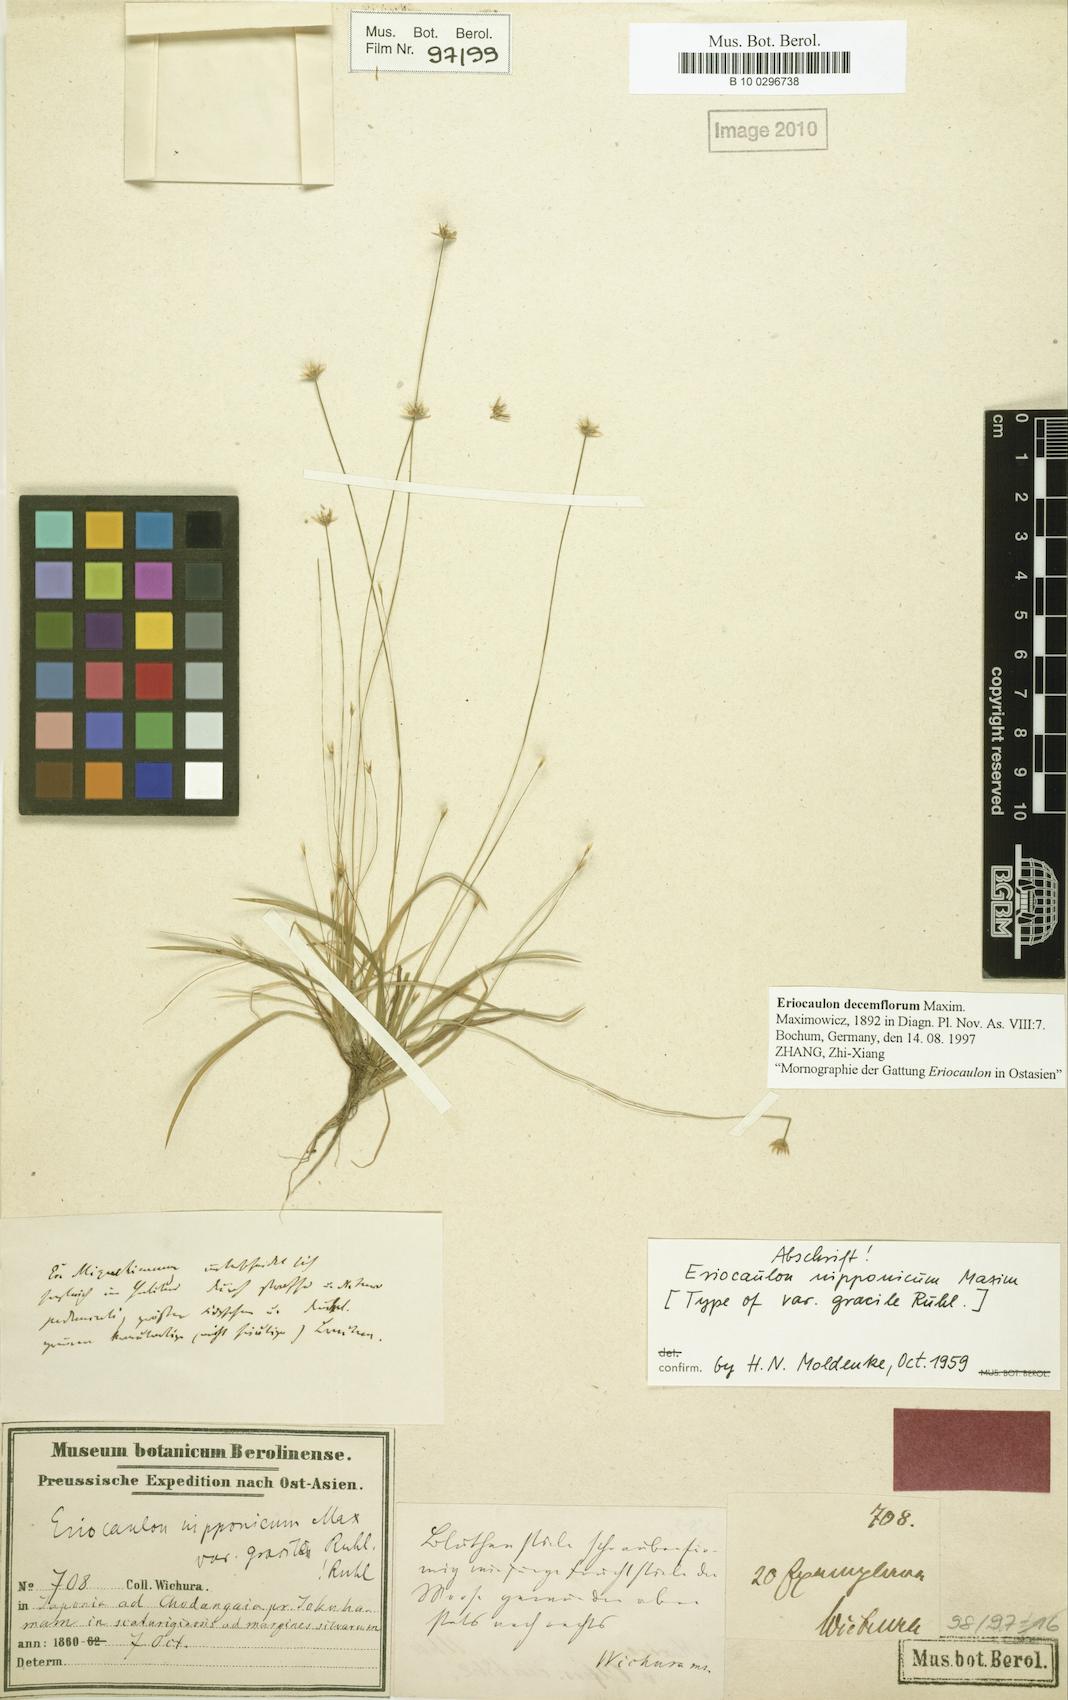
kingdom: Plantae
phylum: Tracheophyta
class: Liliopsida
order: Poales
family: Eriocaulaceae
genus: Eriocaulon
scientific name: Eriocaulon decemflorum
